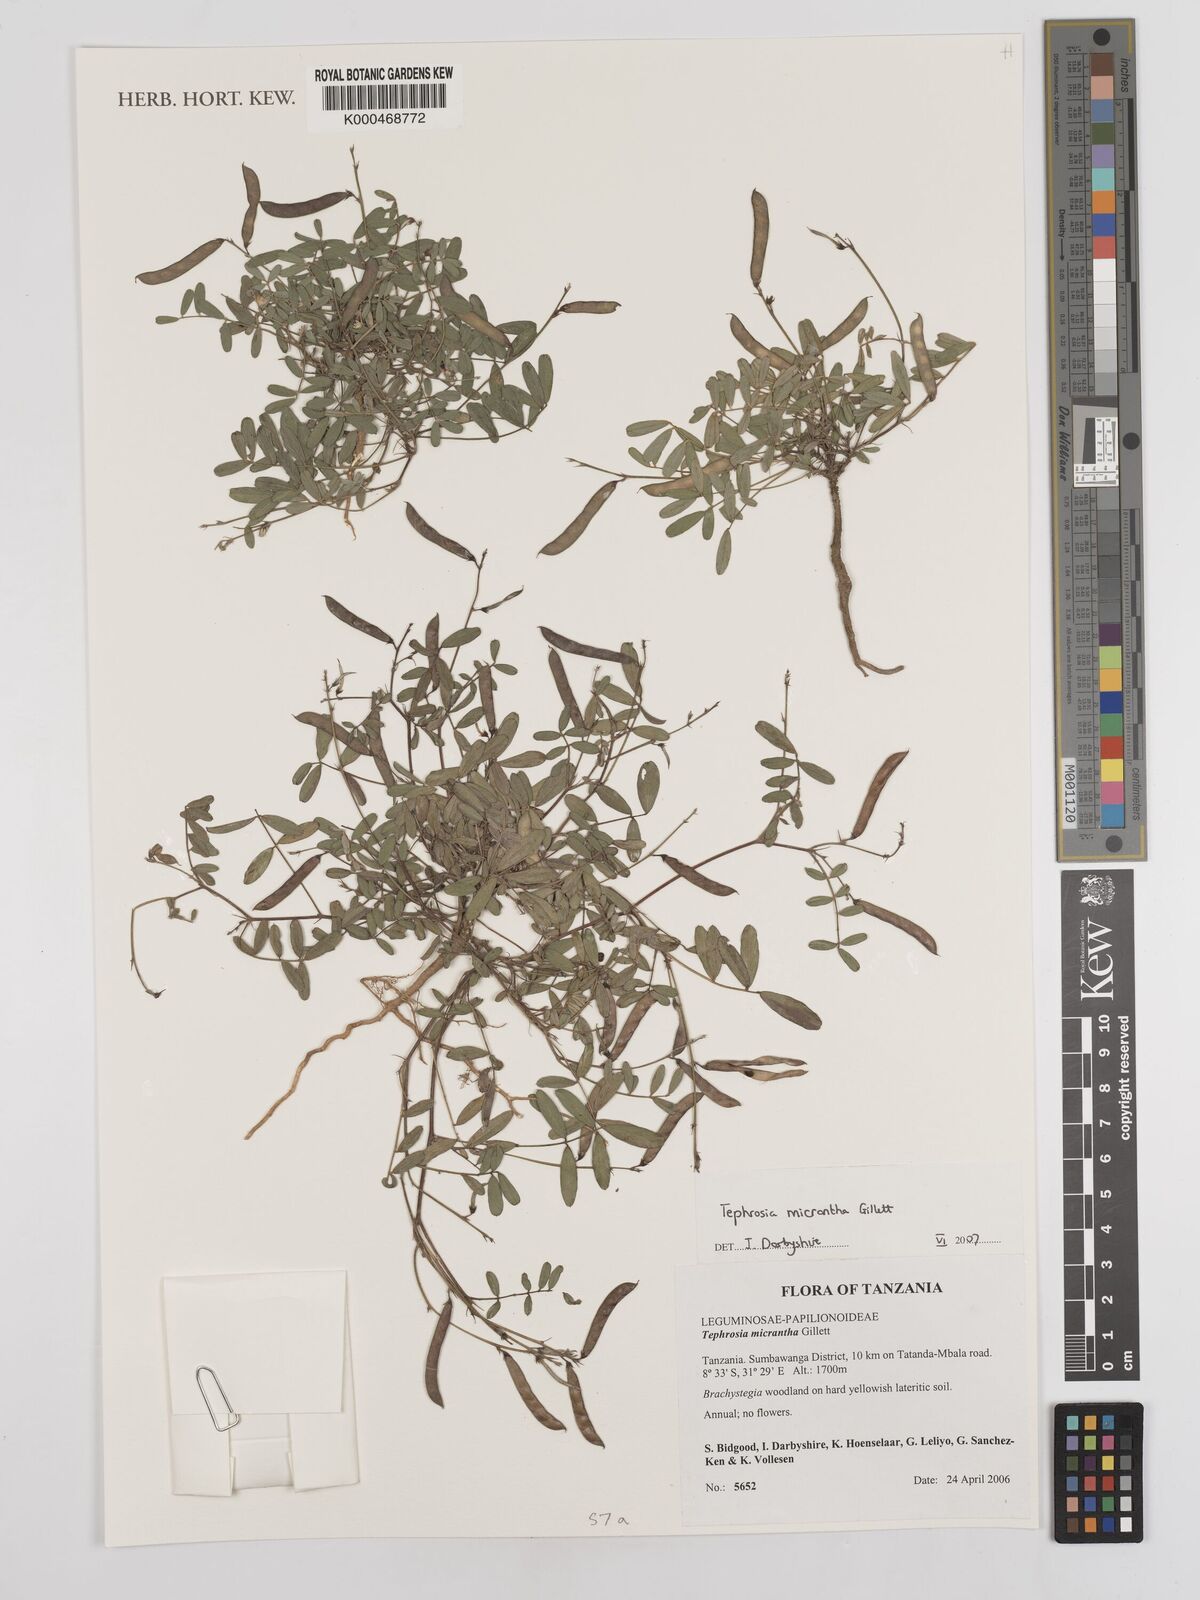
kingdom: Plantae
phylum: Tracheophyta
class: Magnoliopsida
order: Fabales
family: Fabaceae
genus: Tephrosia
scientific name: Tephrosia micrantha
